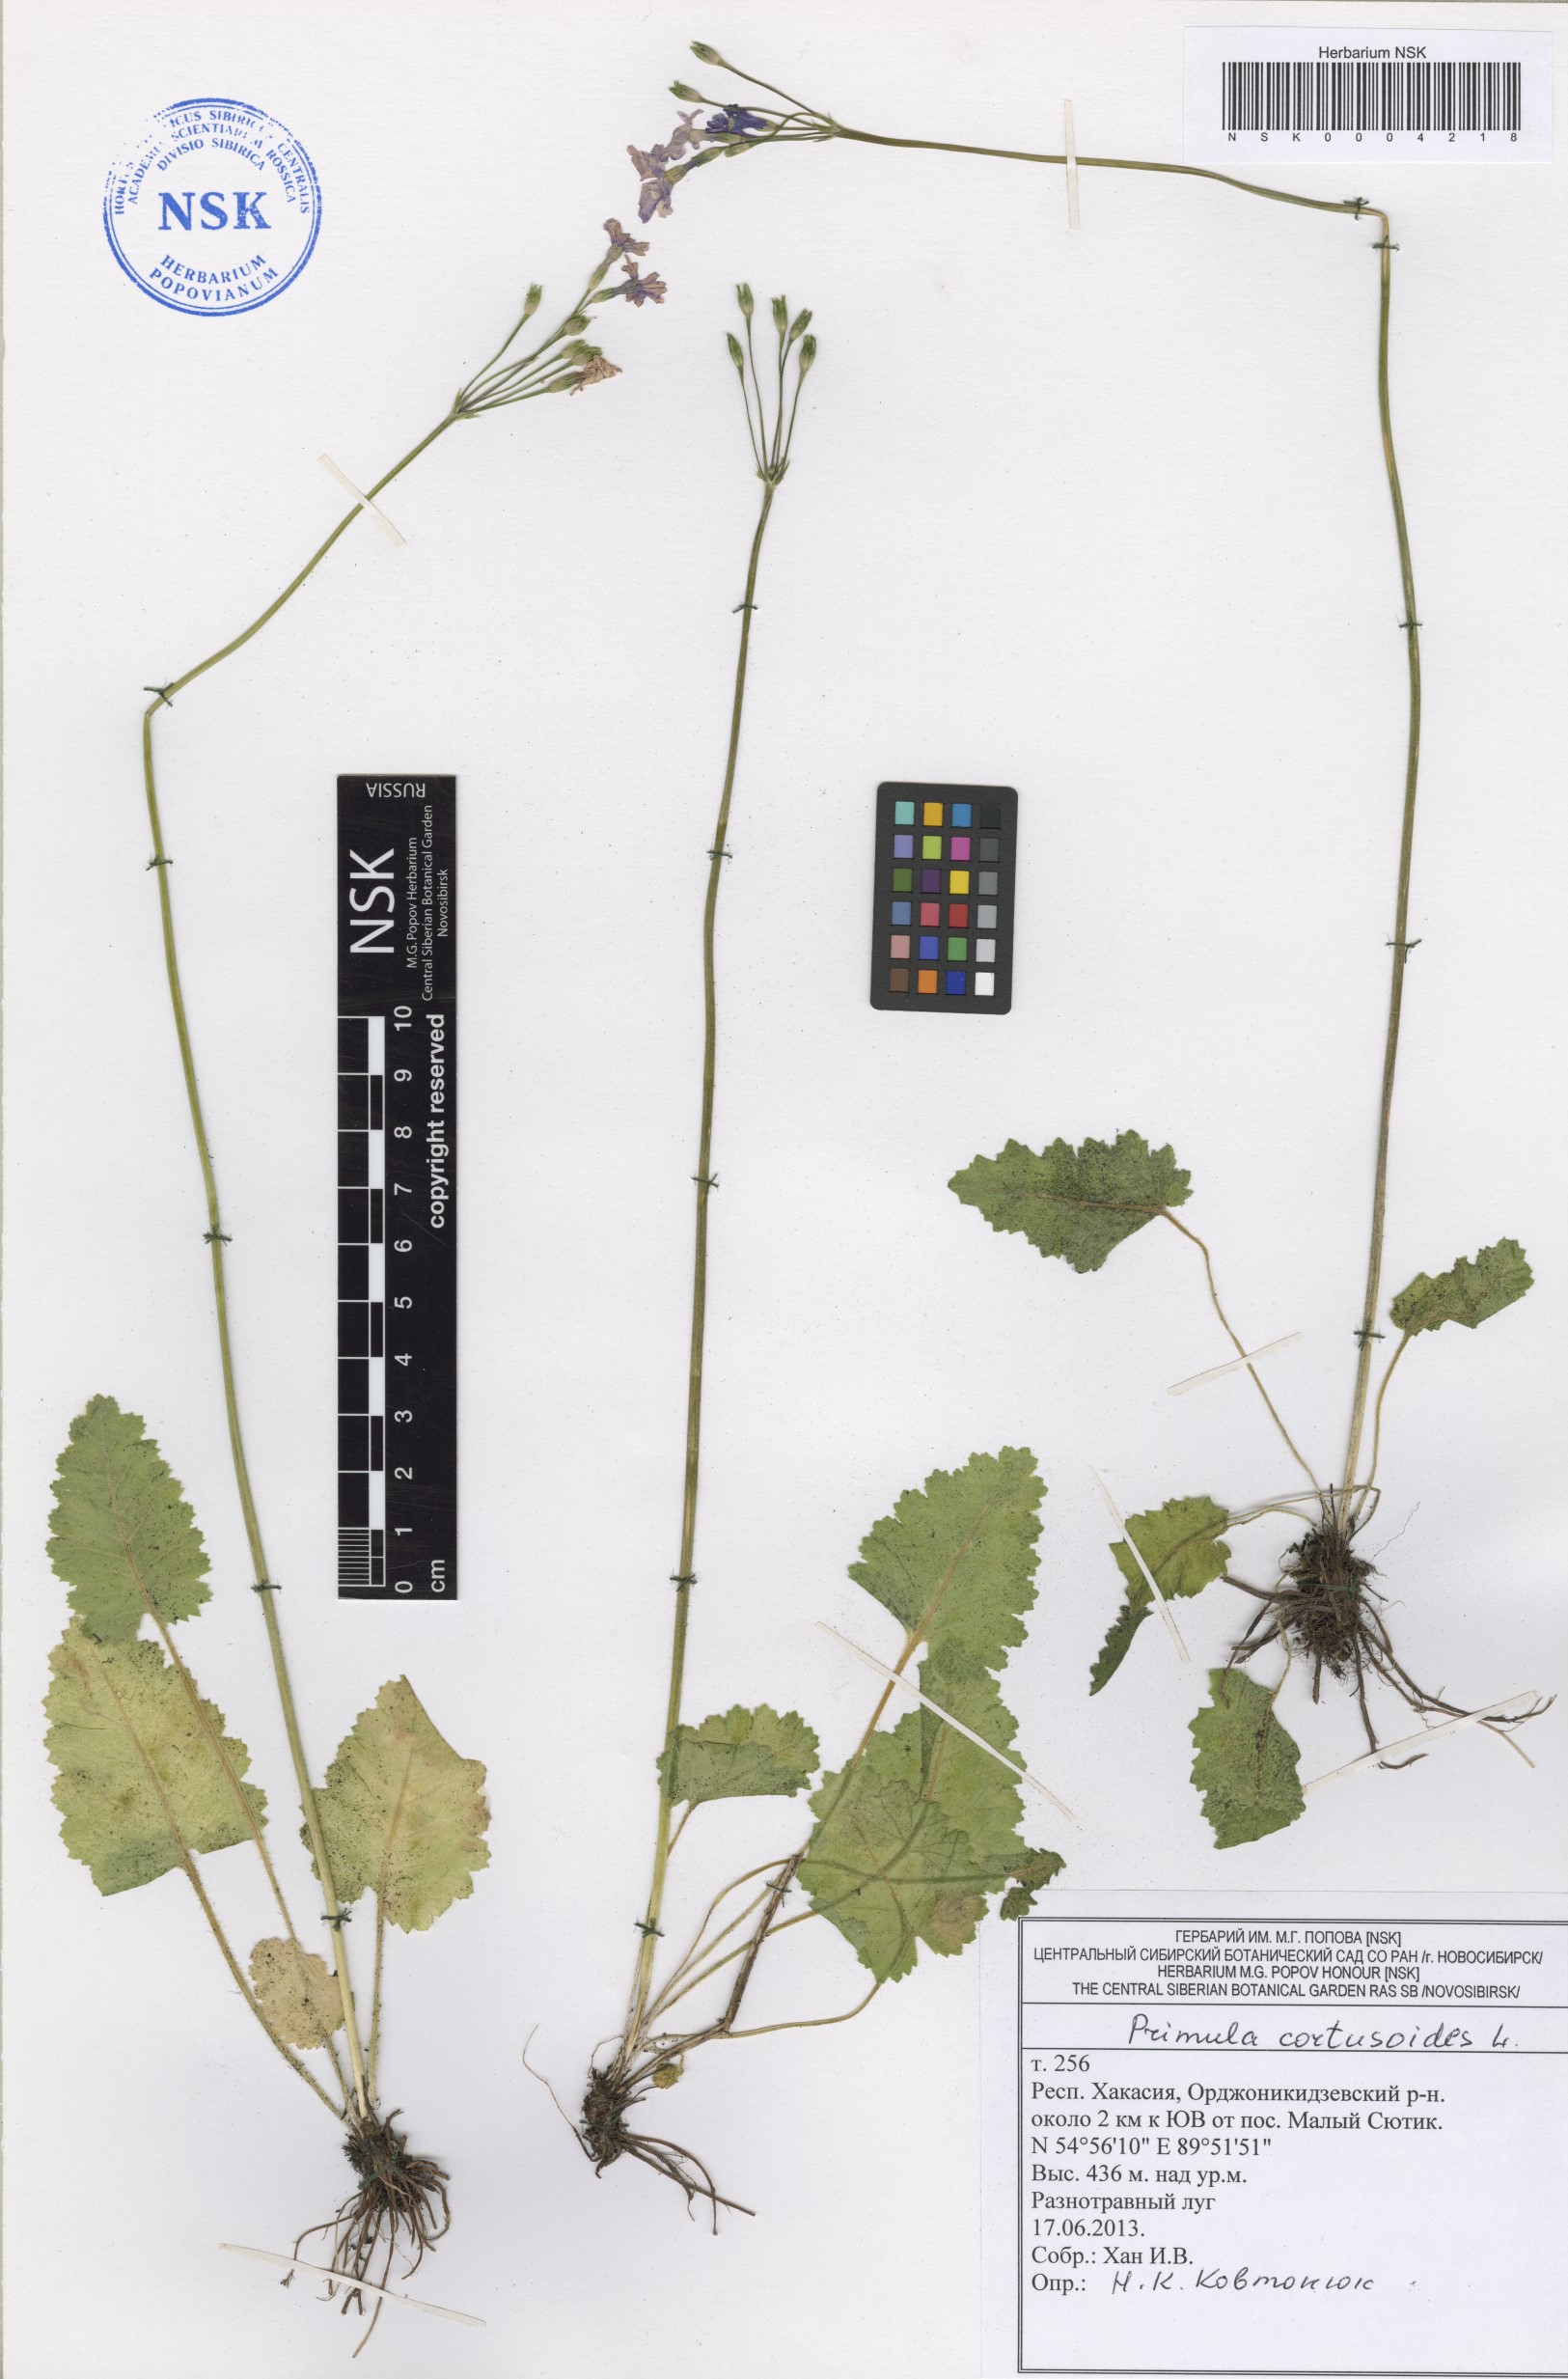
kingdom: Plantae
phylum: Tracheophyta
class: Magnoliopsida
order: Ericales
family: Primulaceae
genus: Primula
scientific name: Primula cortusoides
